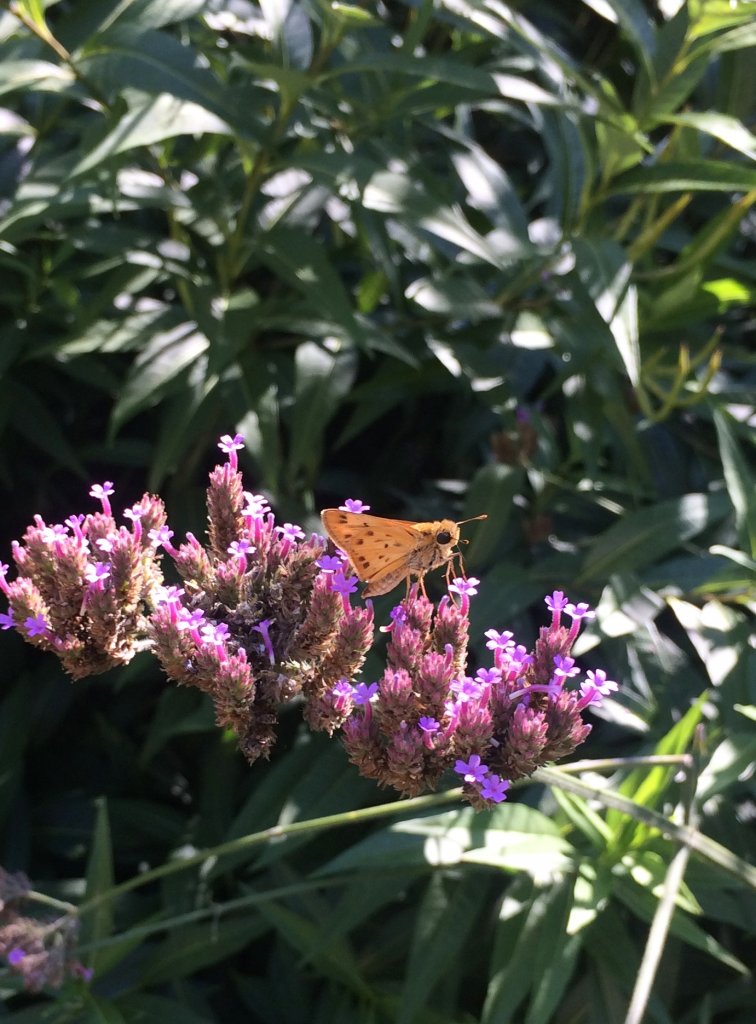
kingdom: Animalia
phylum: Arthropoda
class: Insecta
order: Lepidoptera
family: Hesperiidae
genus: Hylephila
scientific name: Hylephila phyleus
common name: Fiery Skipper
